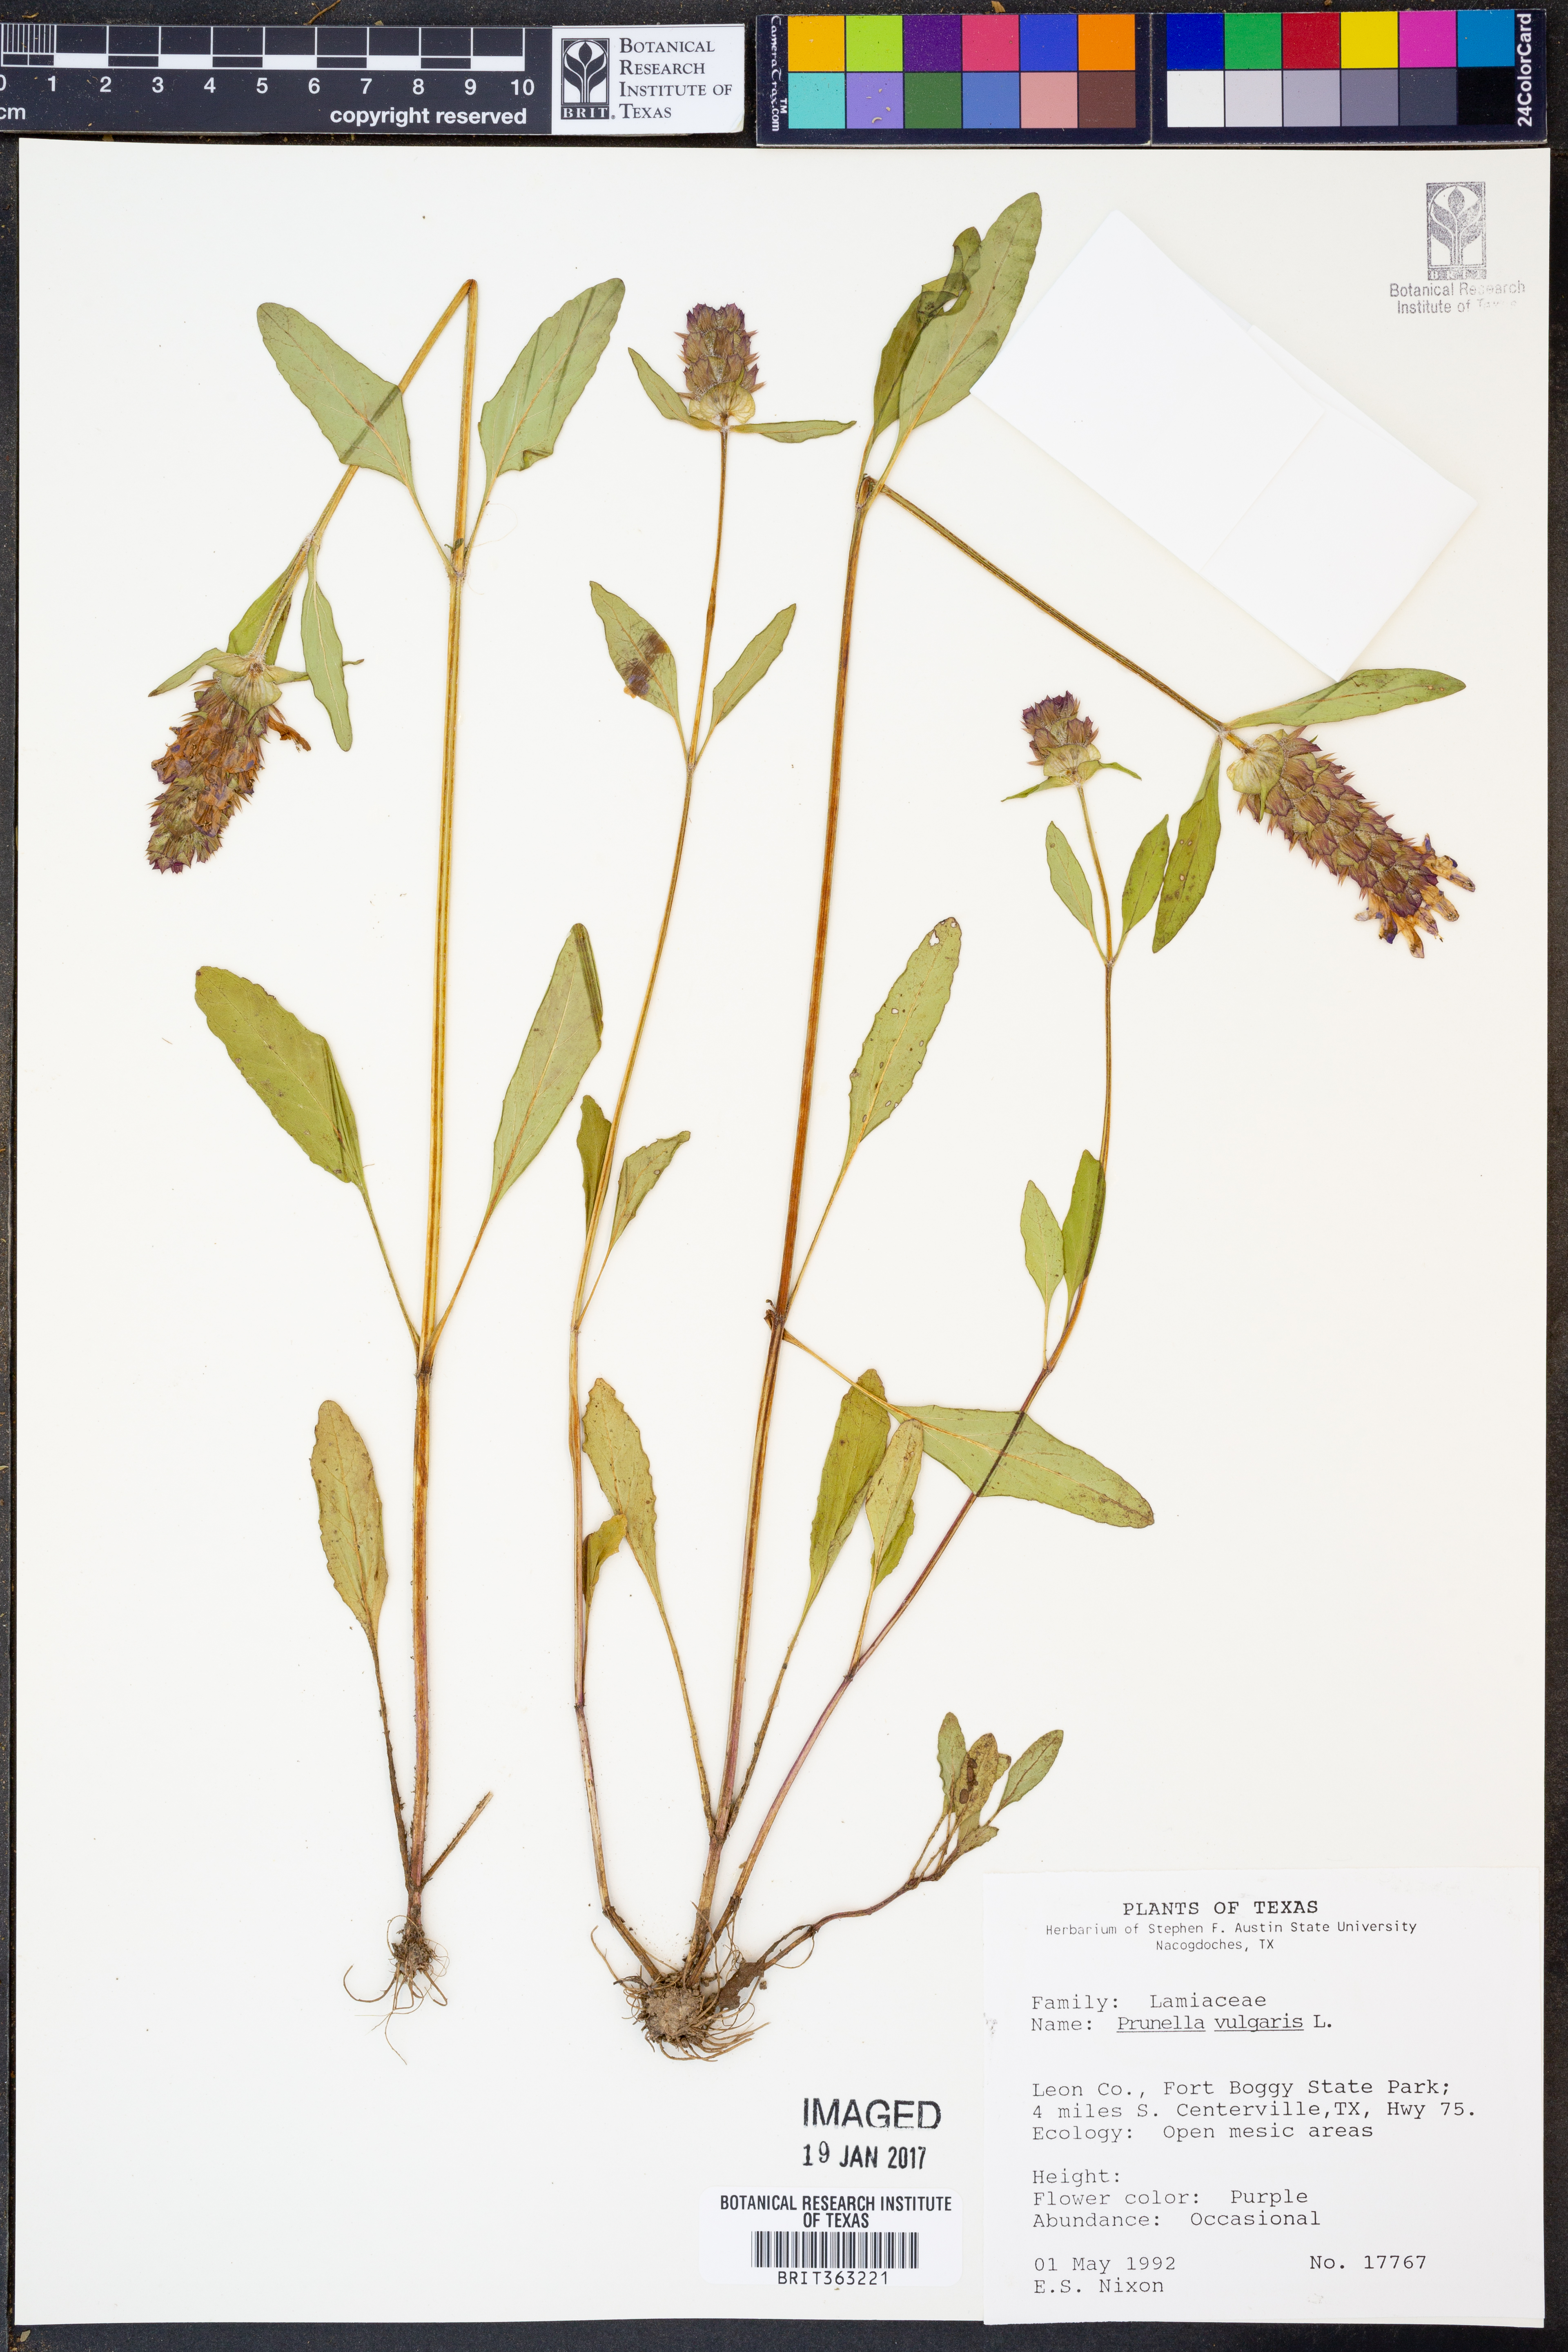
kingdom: Plantae
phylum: Tracheophyta
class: Magnoliopsida
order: Lamiales
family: Lamiaceae
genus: Prunella
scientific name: Prunella vulgaris
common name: Heal-all
